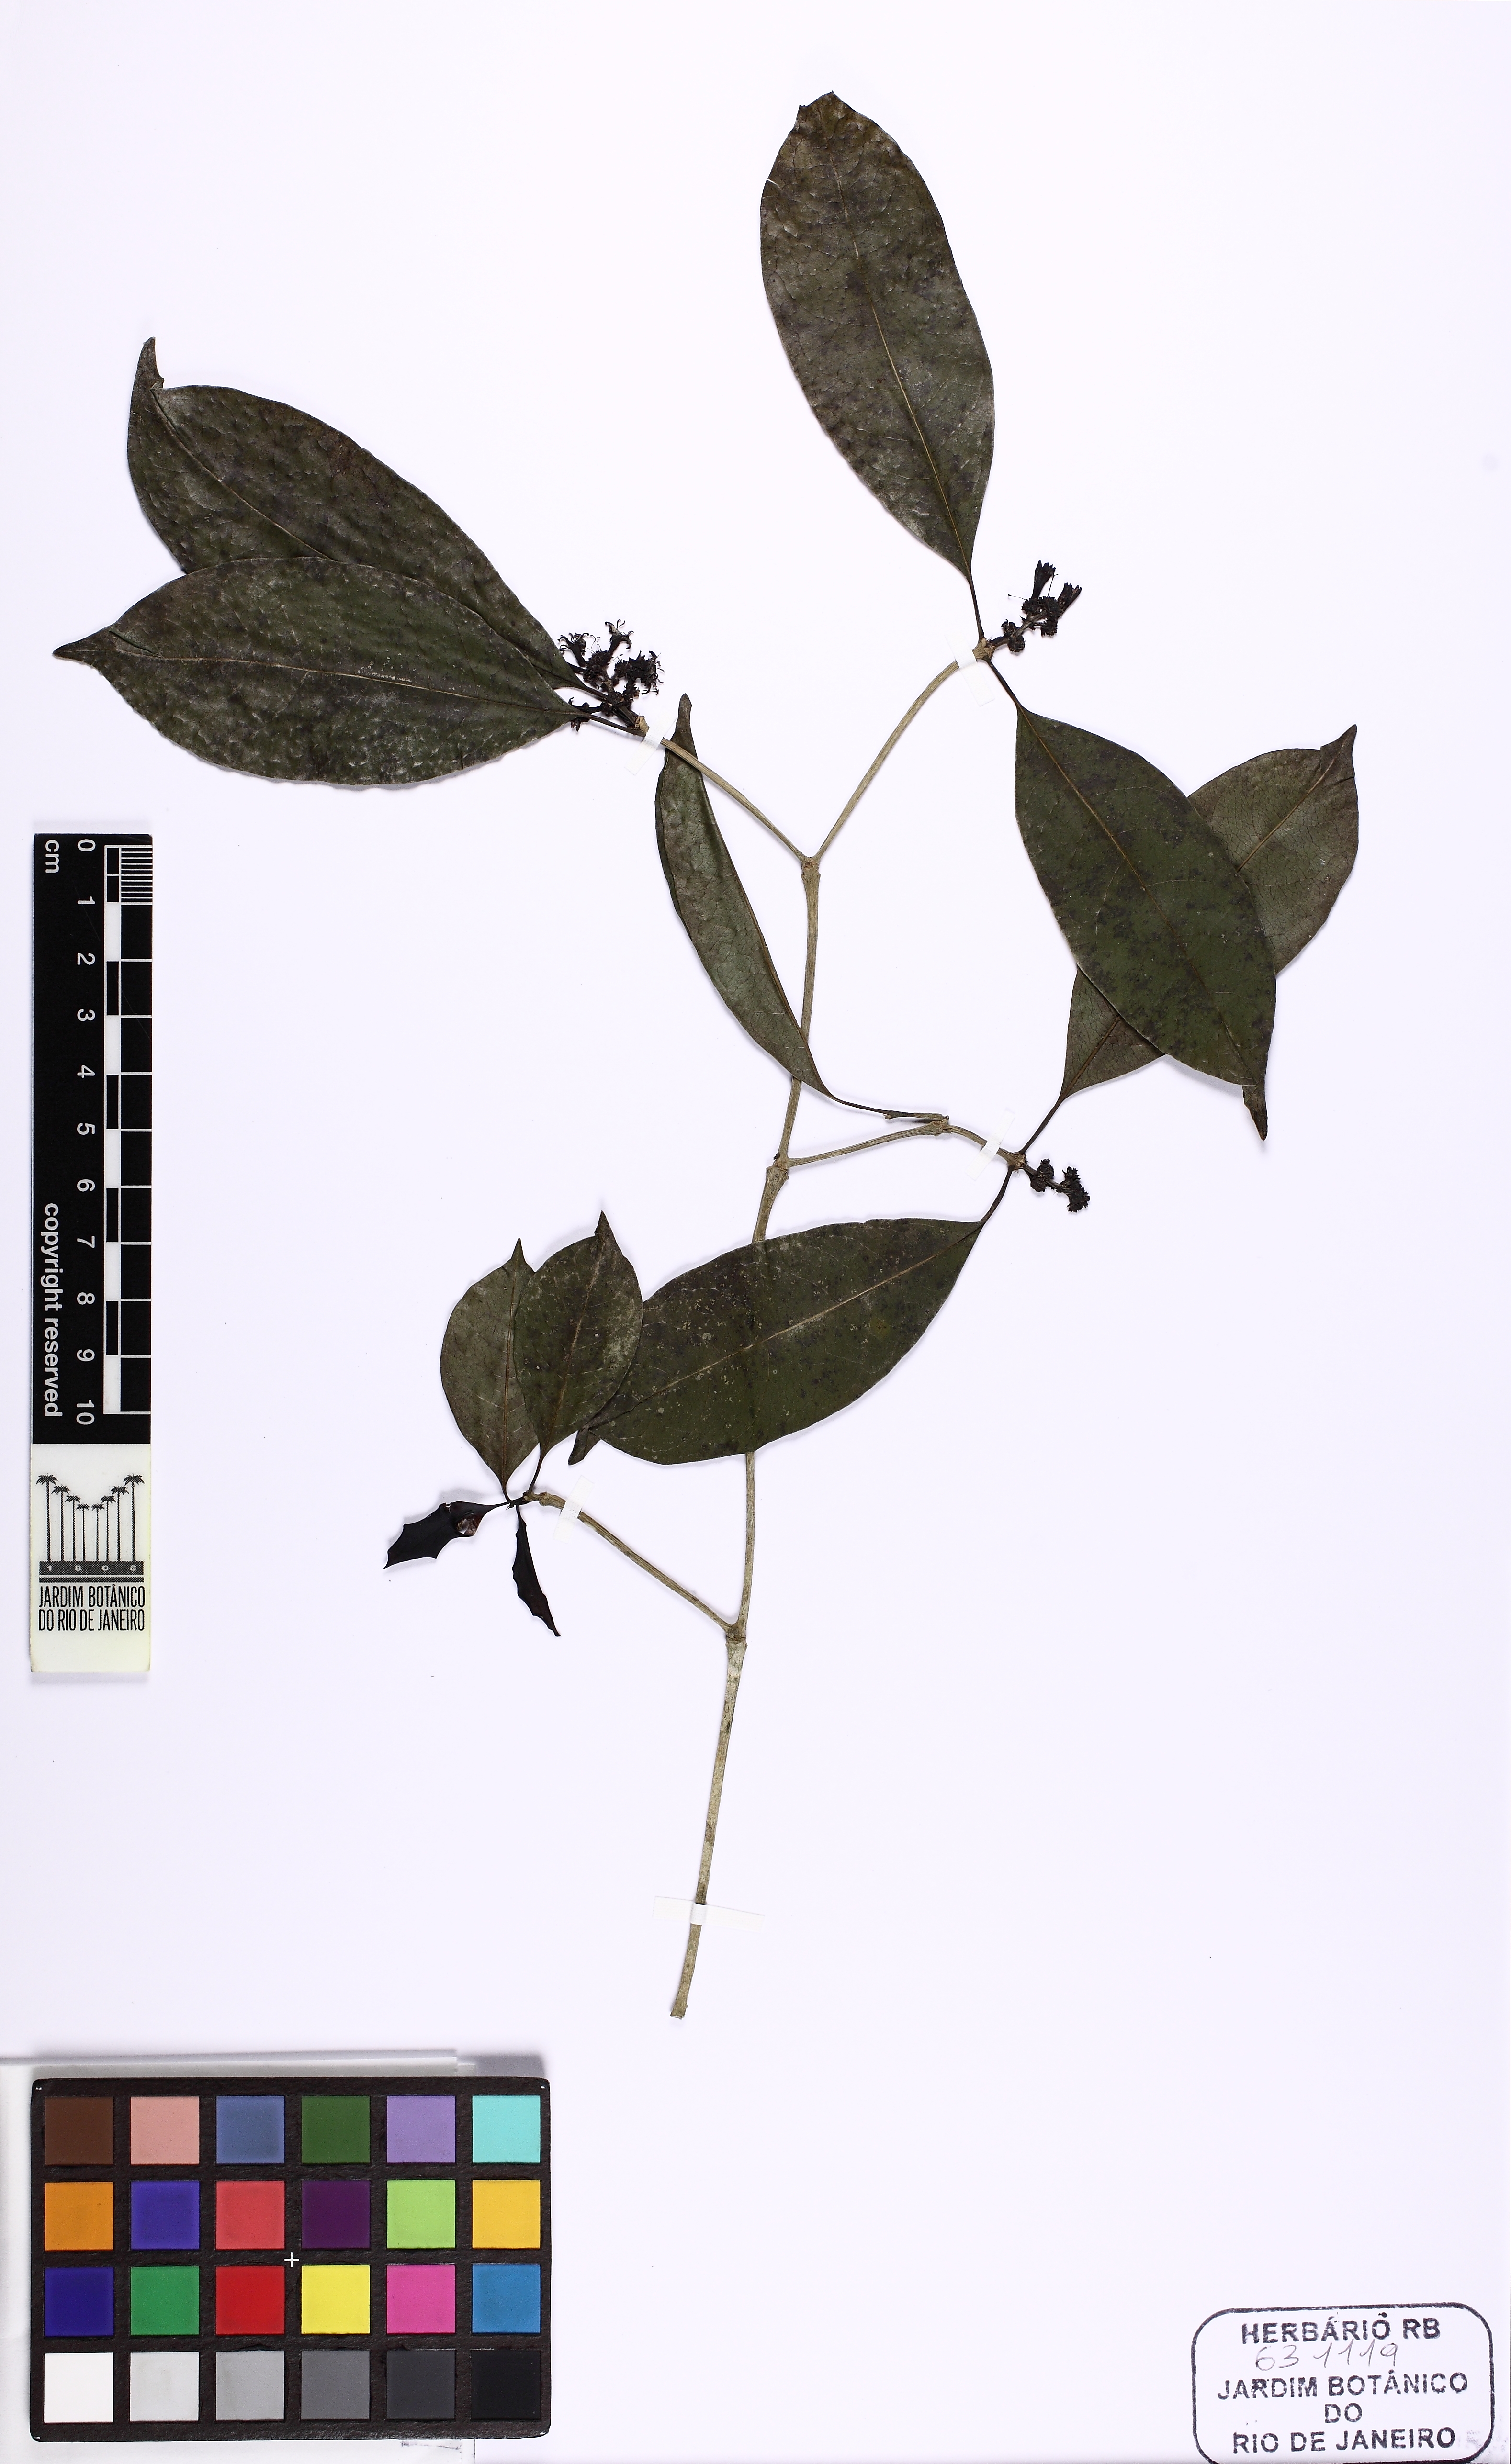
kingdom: Plantae
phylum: Tracheophyta
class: Magnoliopsida
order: Gentianales
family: Rubiaceae
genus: Rudgea
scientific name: Rudgea reticulata
